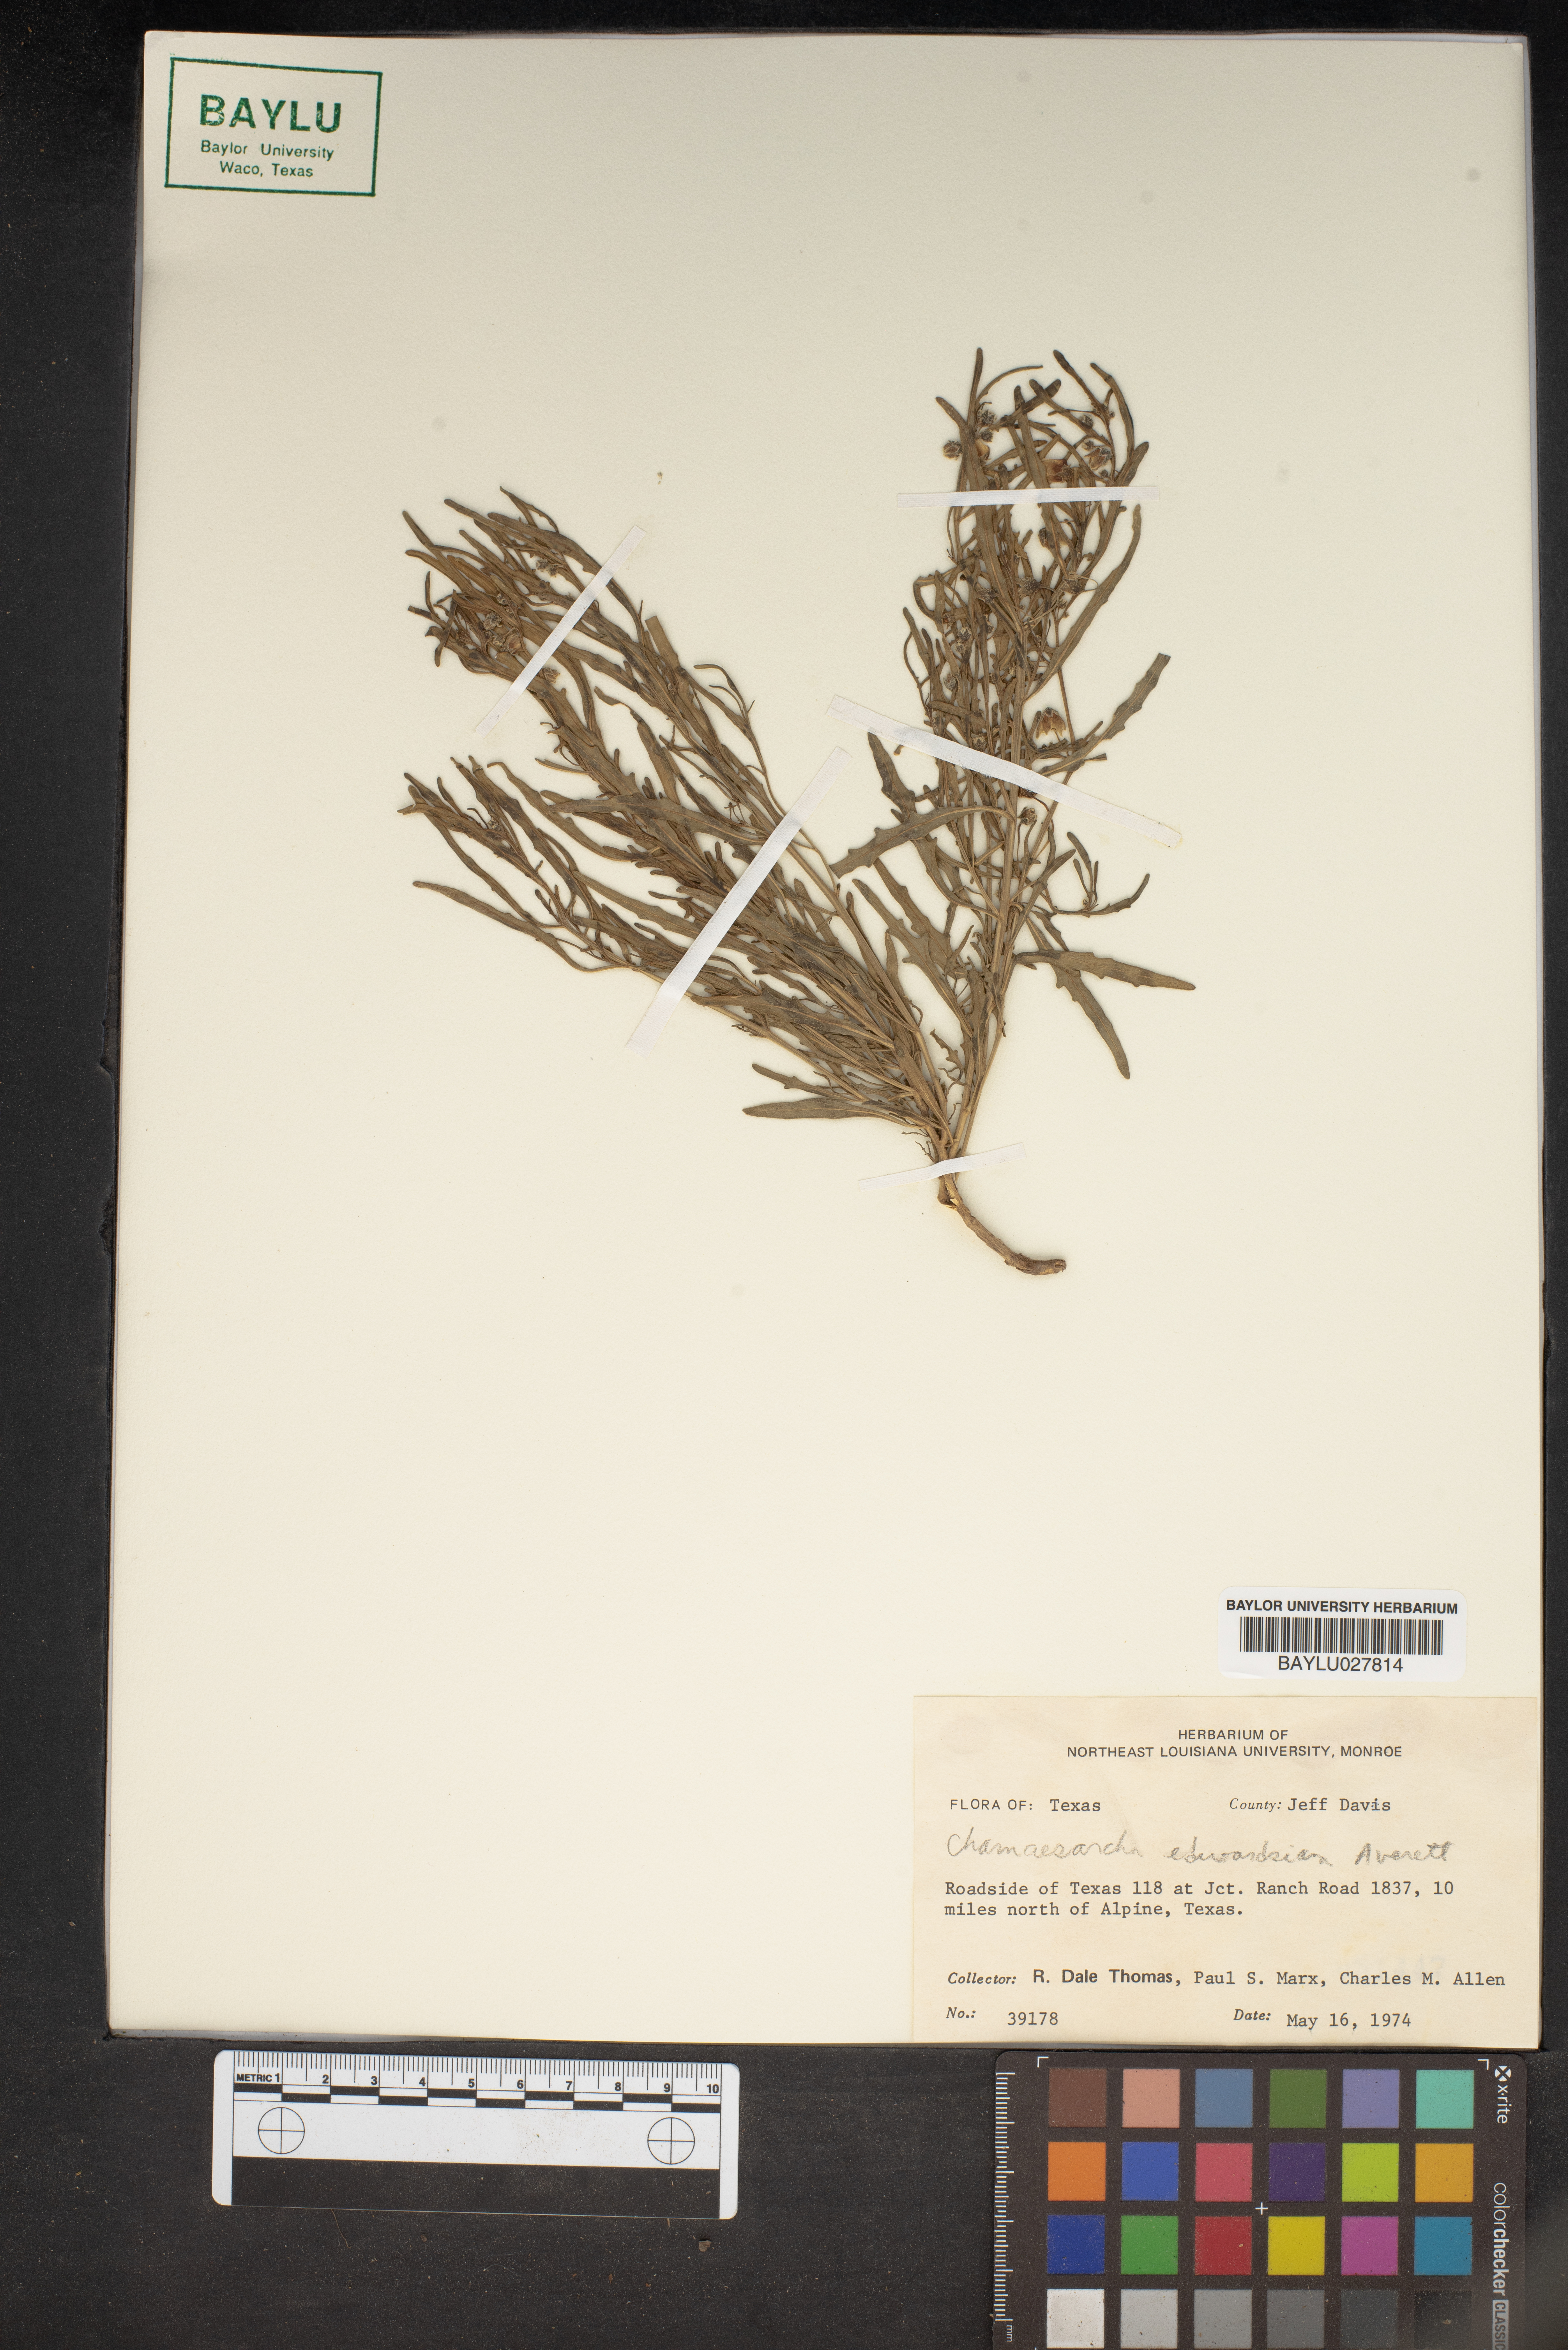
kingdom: Plantae
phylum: Tracheophyta
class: Magnoliopsida
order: Solanales
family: Solanaceae
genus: Chamaesaracha
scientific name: Chamaesaracha edwardsiana
